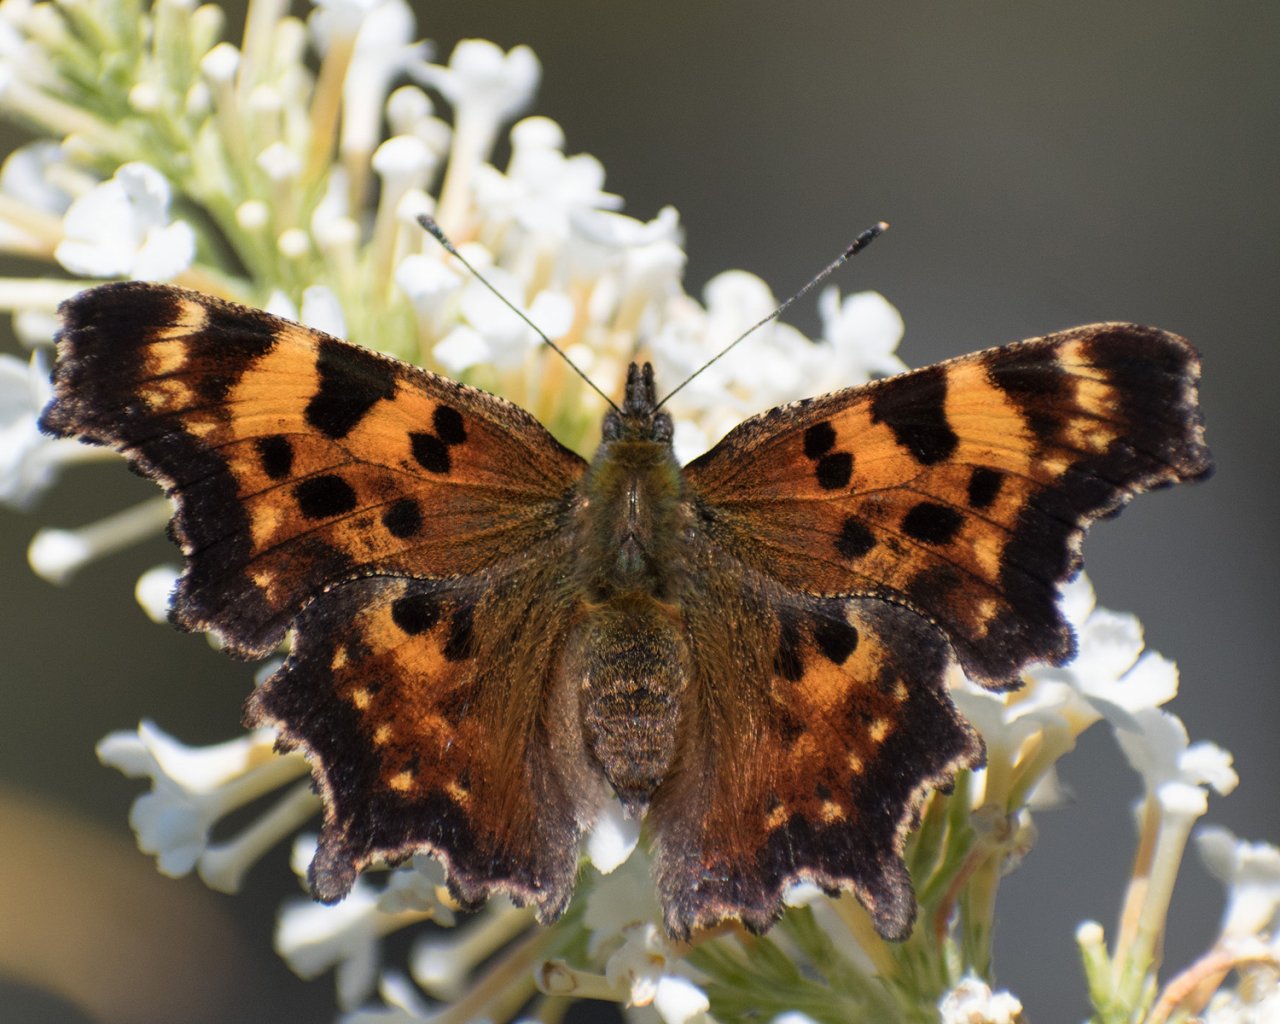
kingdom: Animalia
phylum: Arthropoda
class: Insecta
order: Lepidoptera
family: Nymphalidae
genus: Polygonia
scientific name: Polygonia faunus
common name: Green Comma
